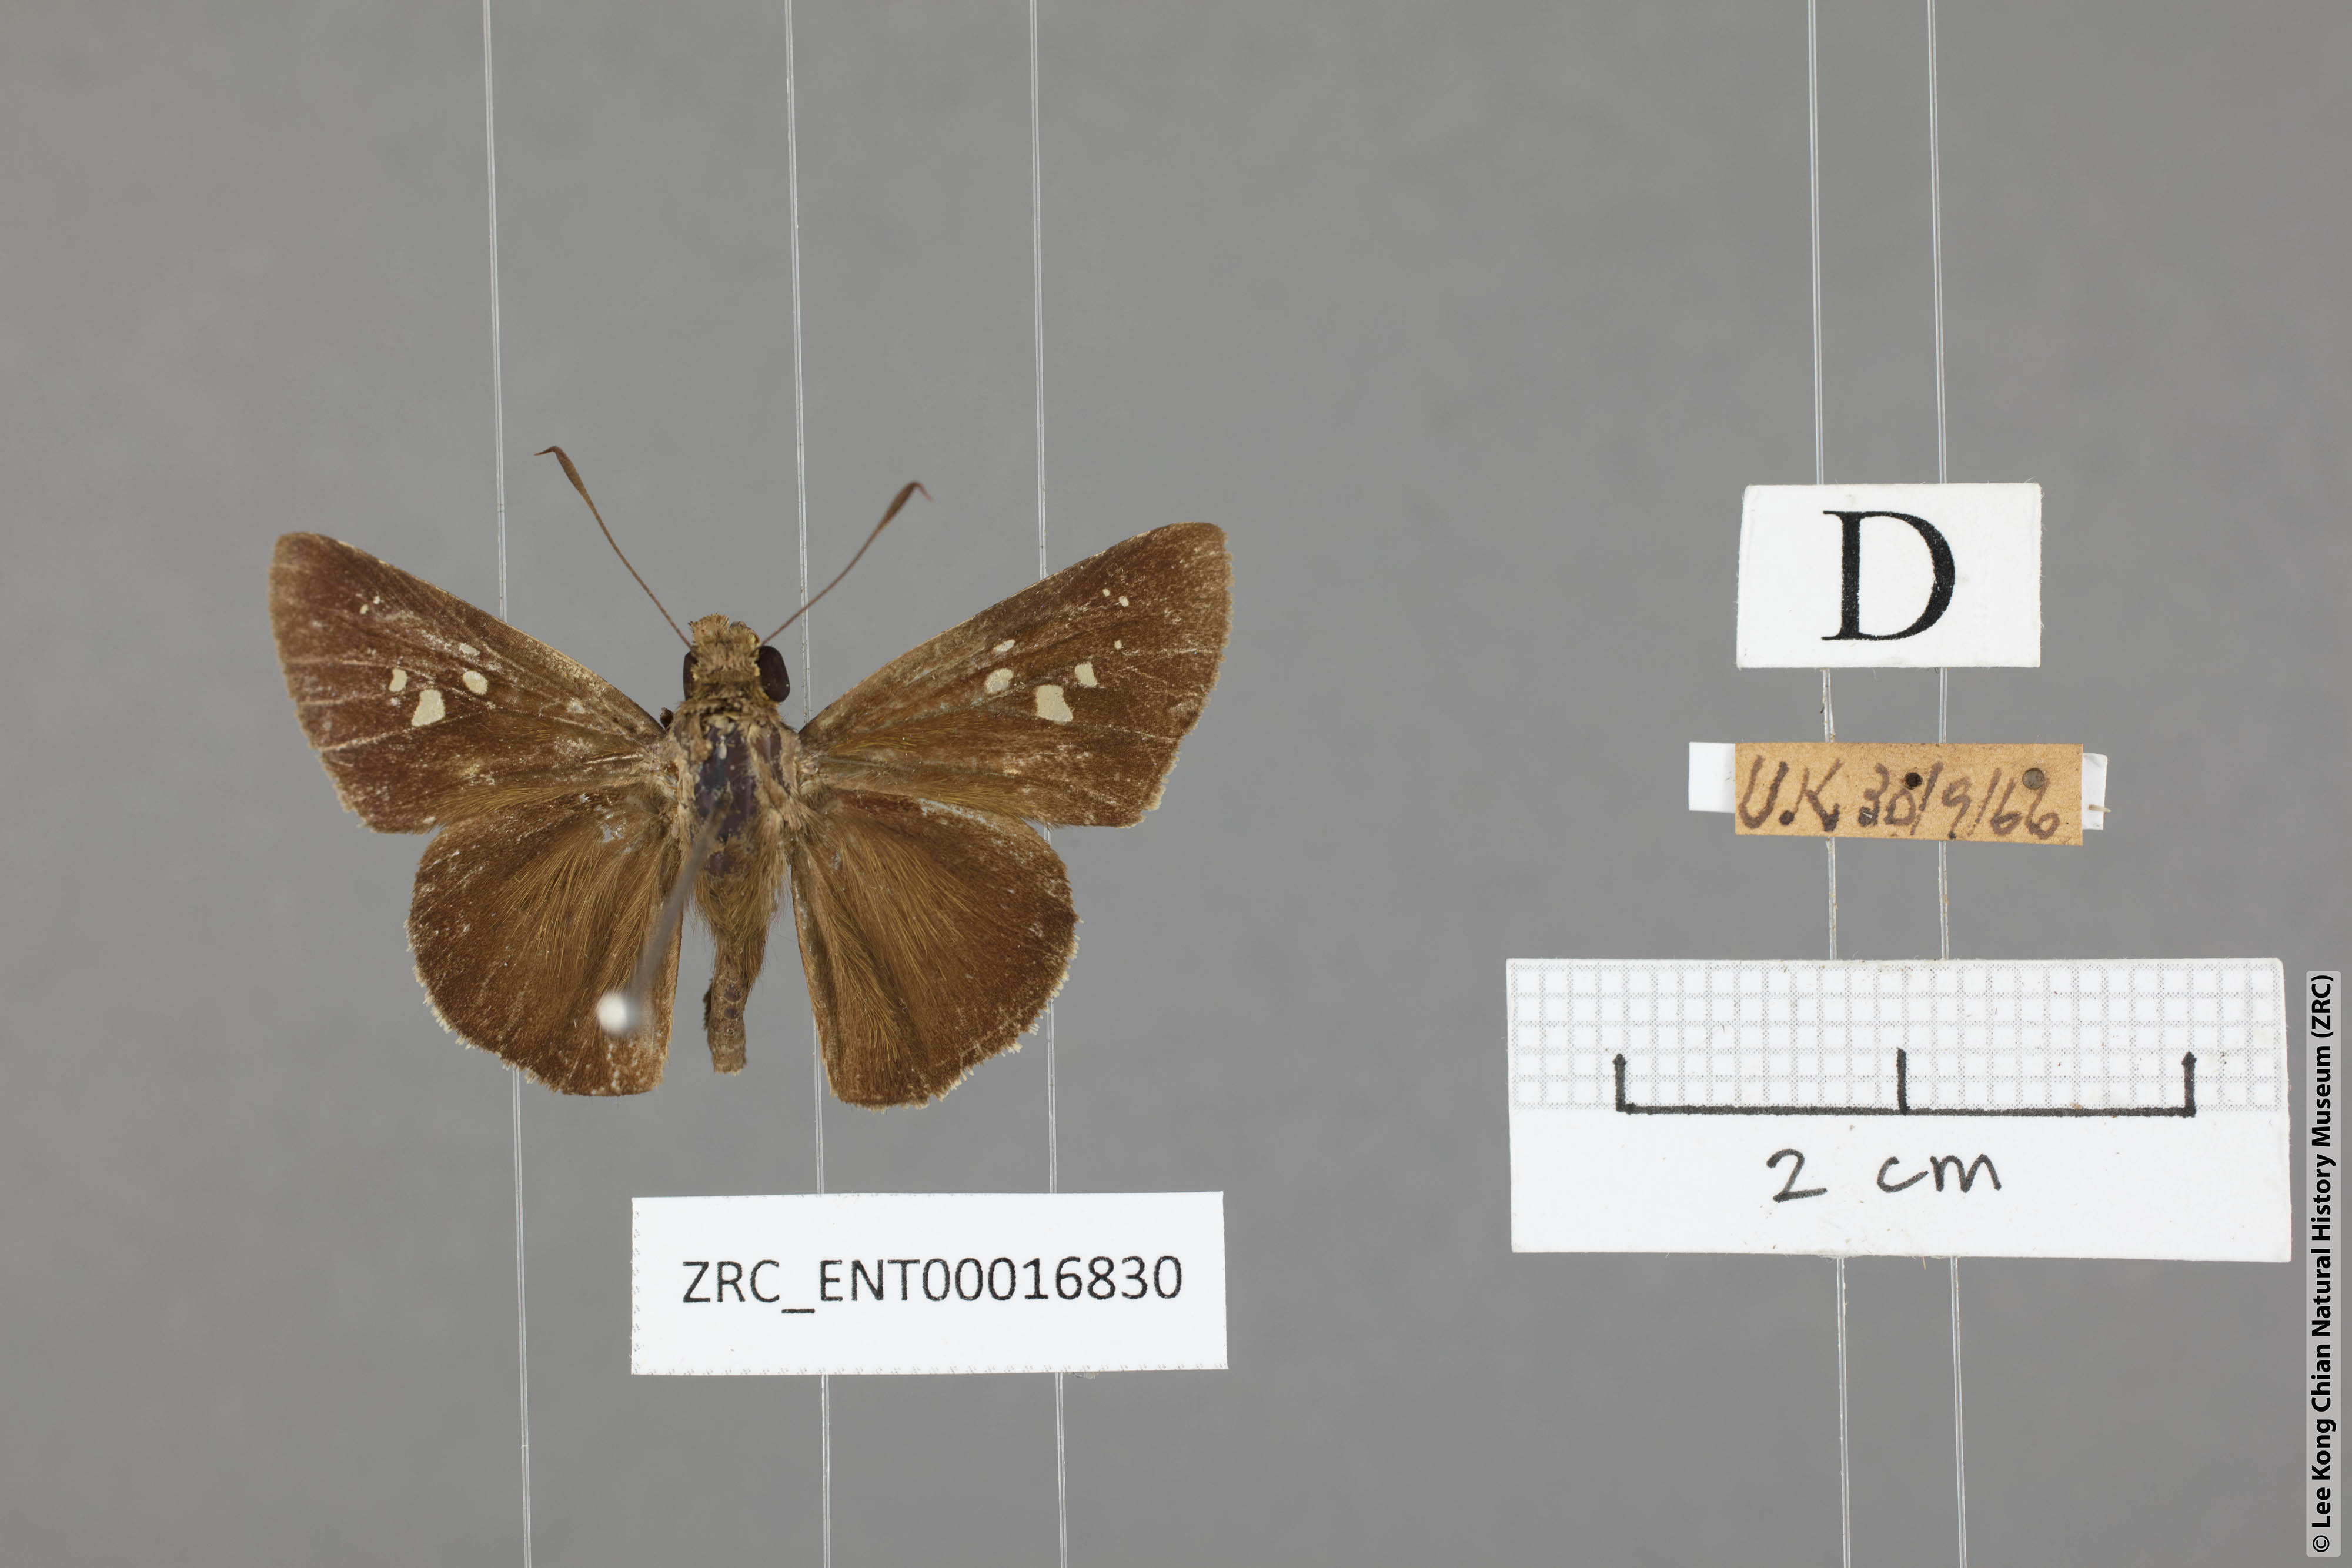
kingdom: Animalia
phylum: Arthropoda
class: Insecta
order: Lepidoptera
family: Hesperiidae
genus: Caltoris
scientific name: Caltoris cormasa
